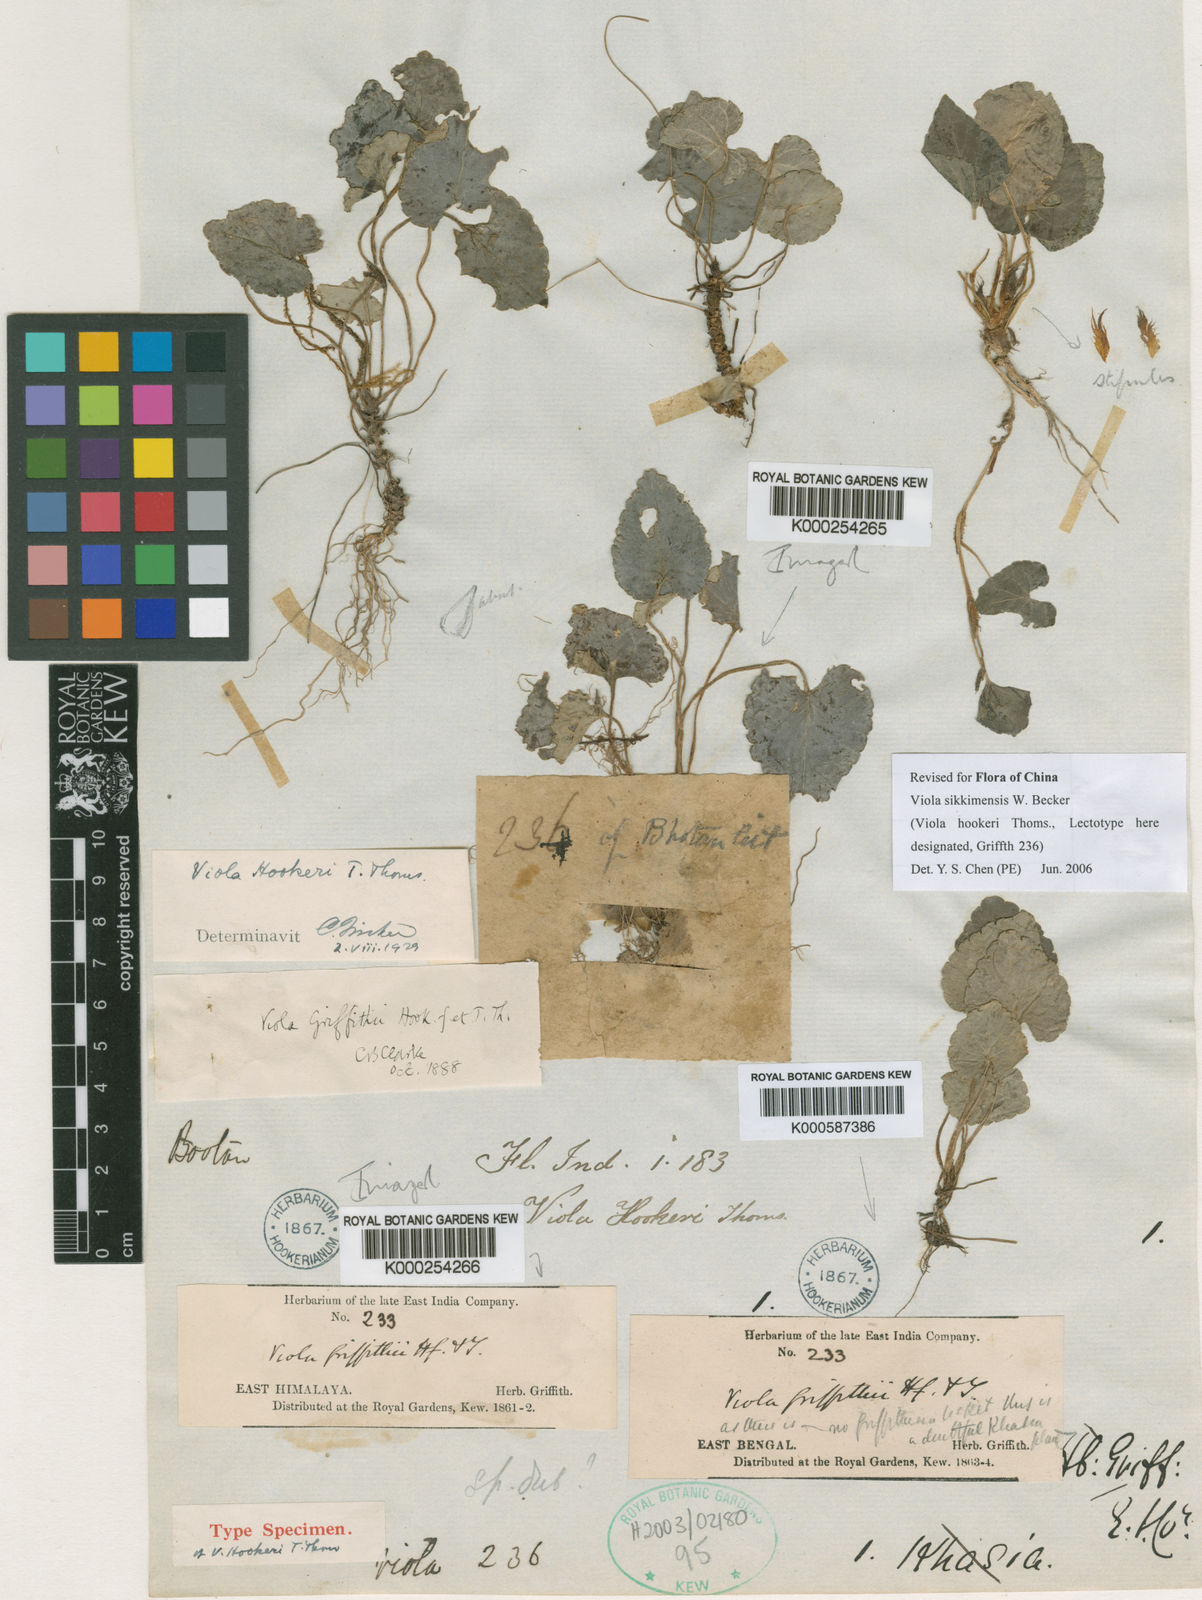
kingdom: Plantae
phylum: Tracheophyta
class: Magnoliopsida
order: Malpighiales
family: Violaceae
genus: Viola
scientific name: Viola sikkimensis
